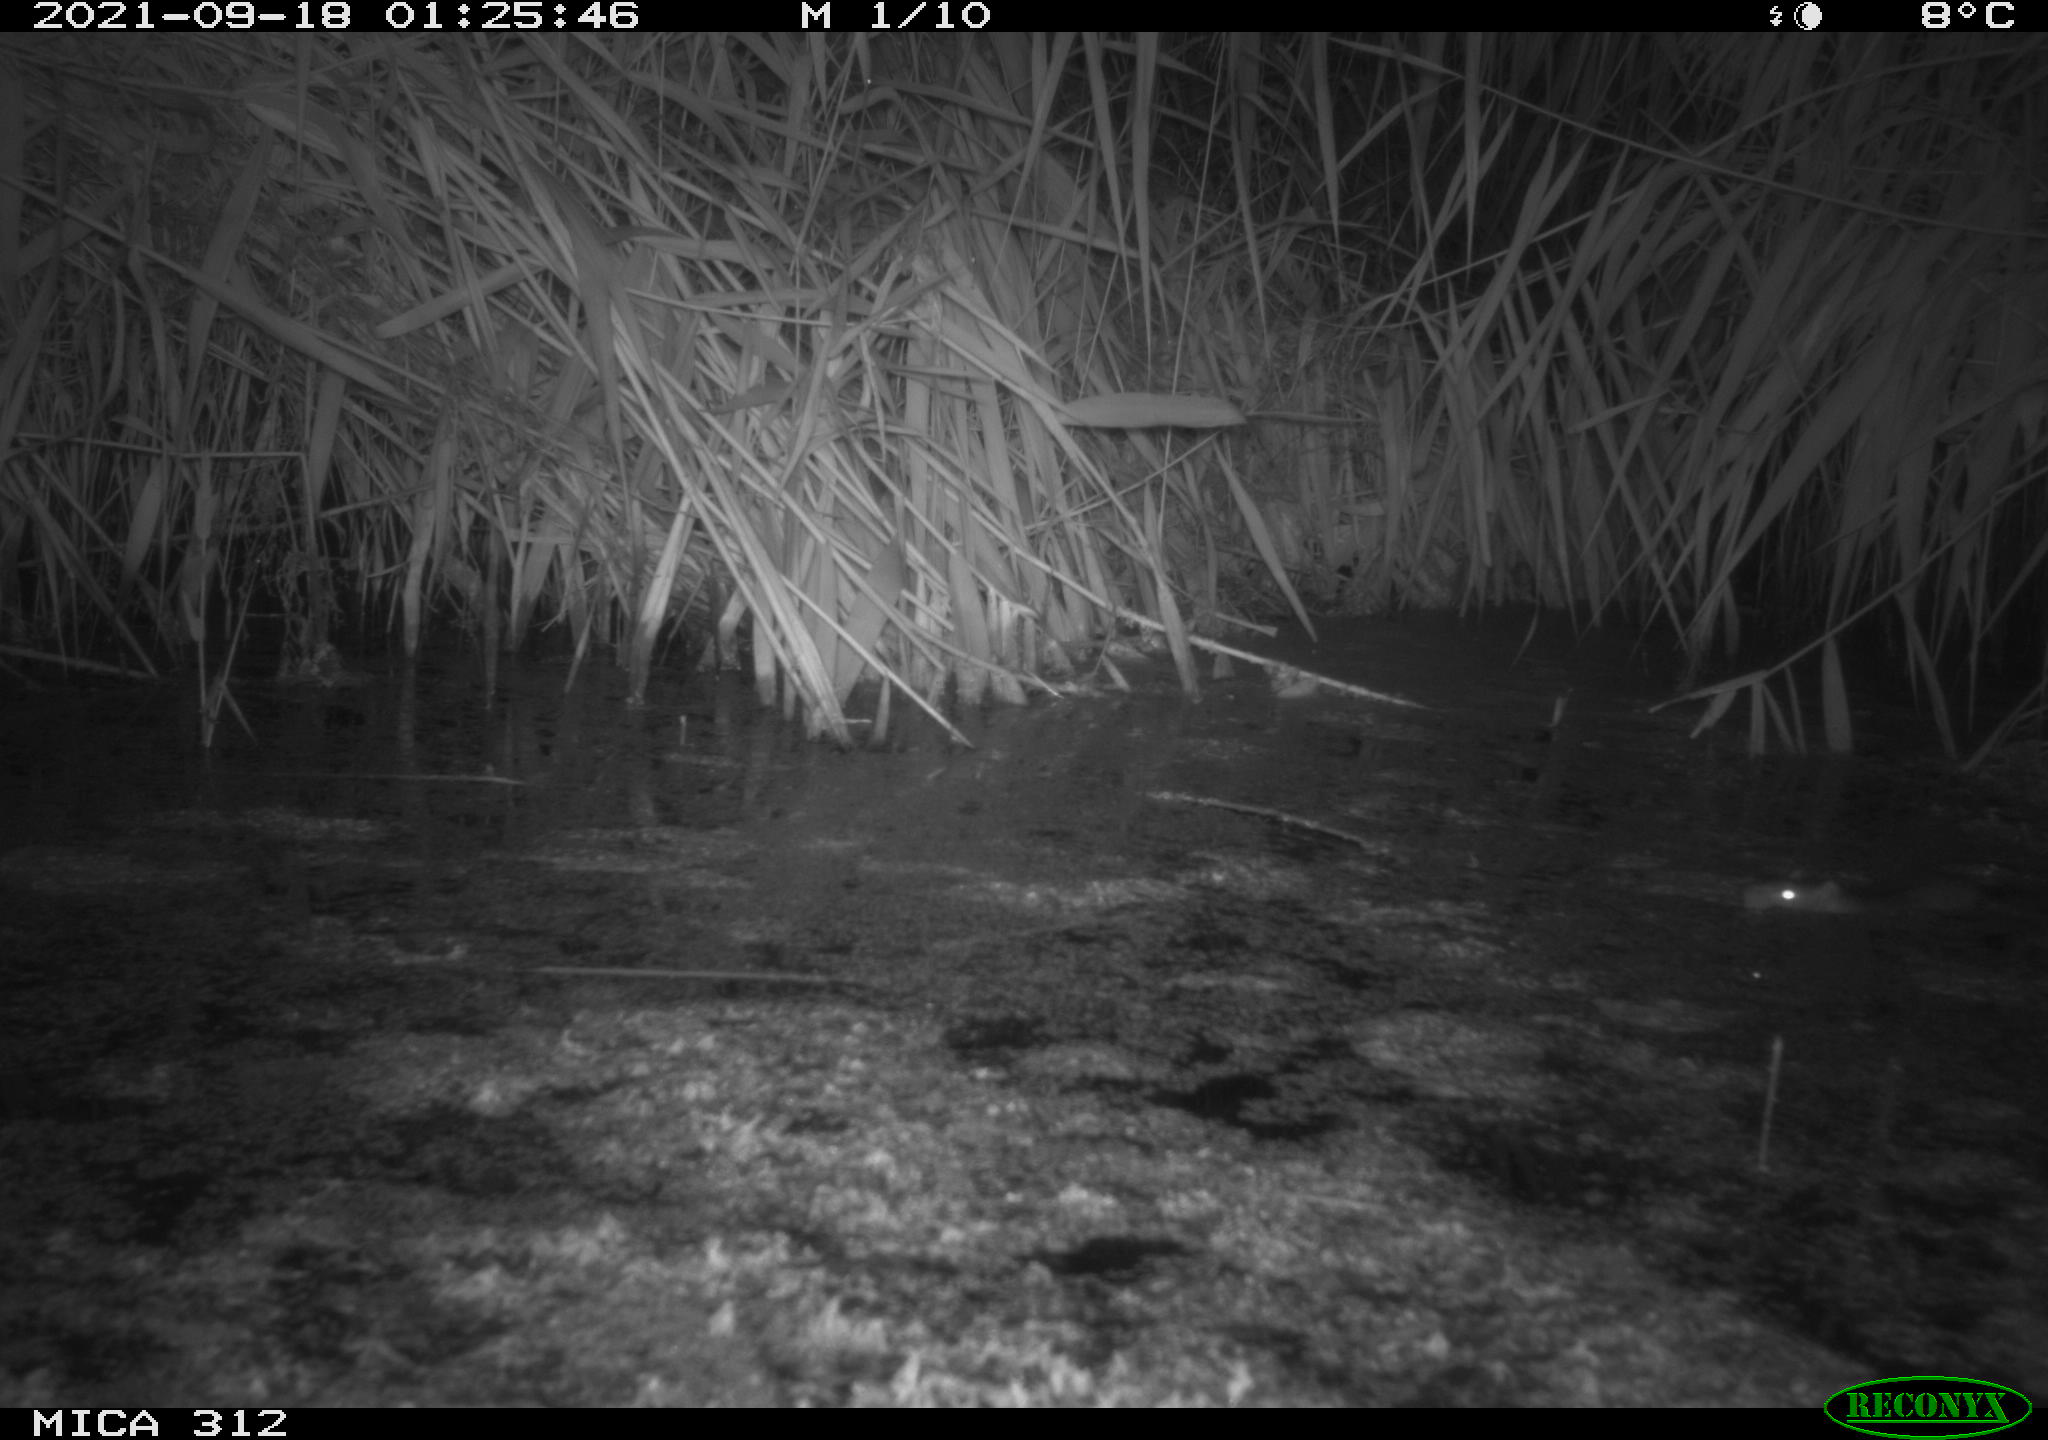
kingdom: Animalia
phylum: Chordata
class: Mammalia
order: Rodentia
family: Muridae
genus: Rattus
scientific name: Rattus norvegicus
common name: Brown rat
